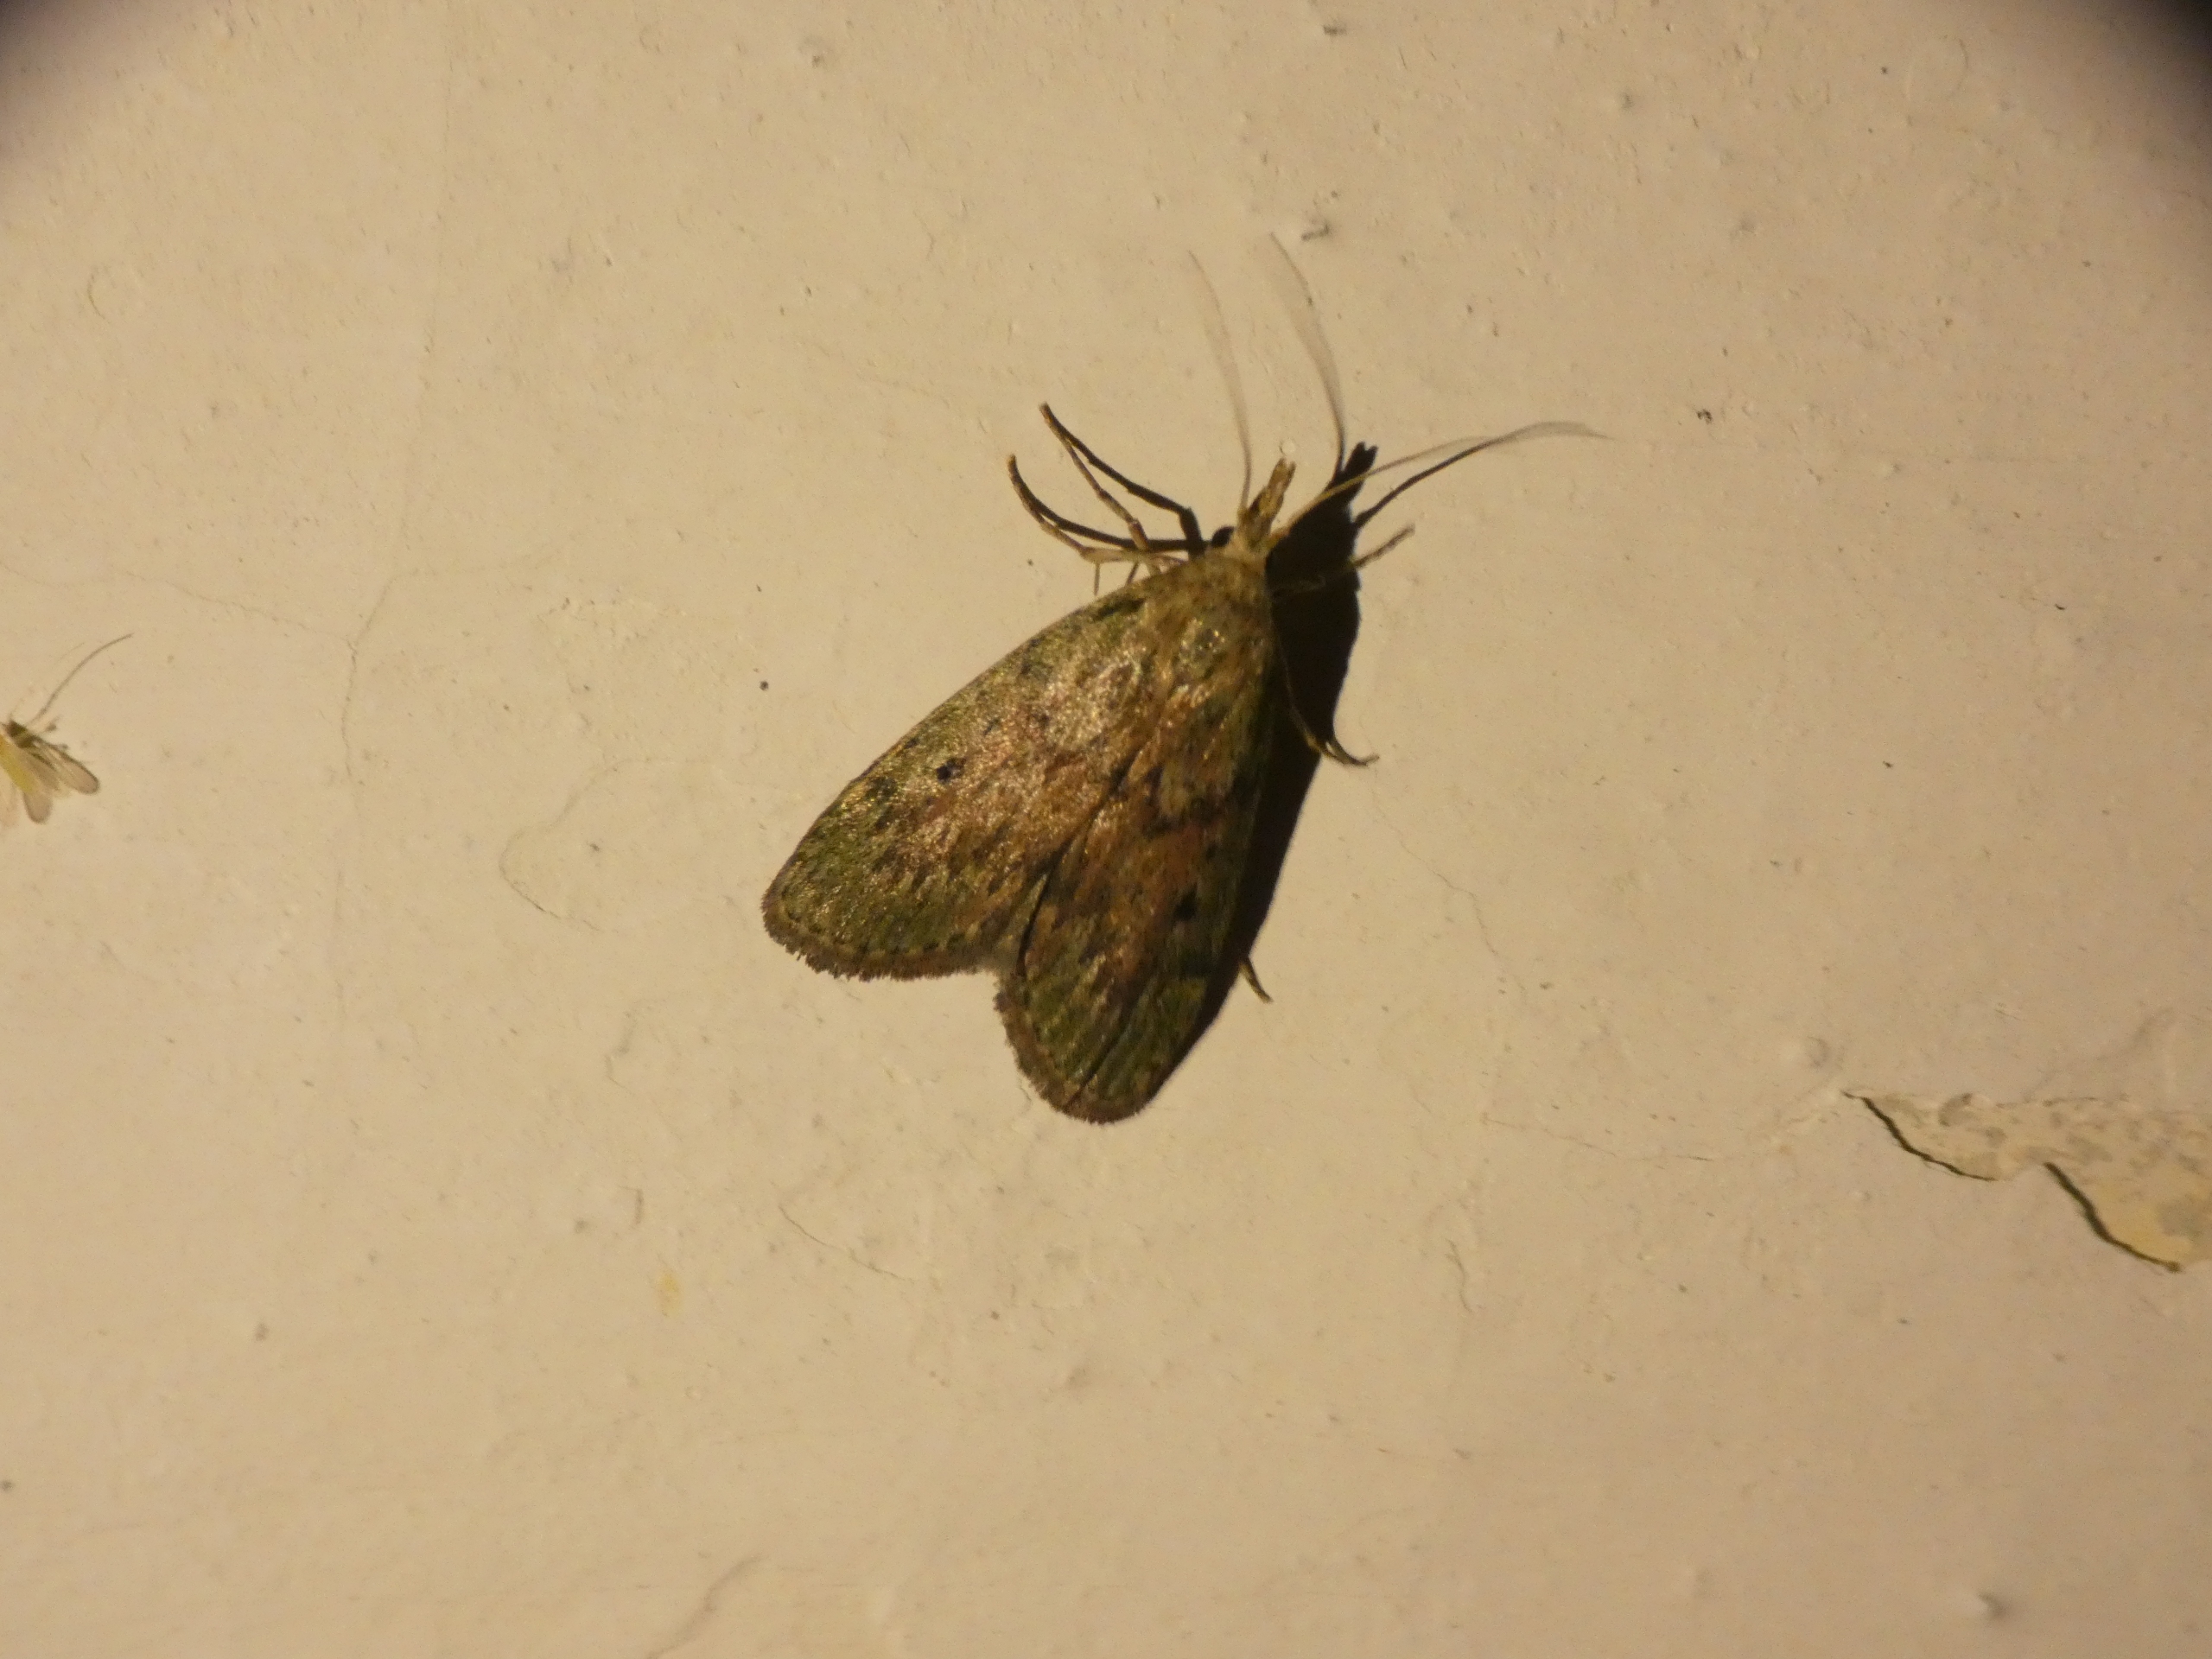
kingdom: Animalia
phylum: Arthropoda
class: Insecta
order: Lepidoptera
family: Pyralidae
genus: Aphomia
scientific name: Aphomia sociella
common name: Humlevoksmøl
